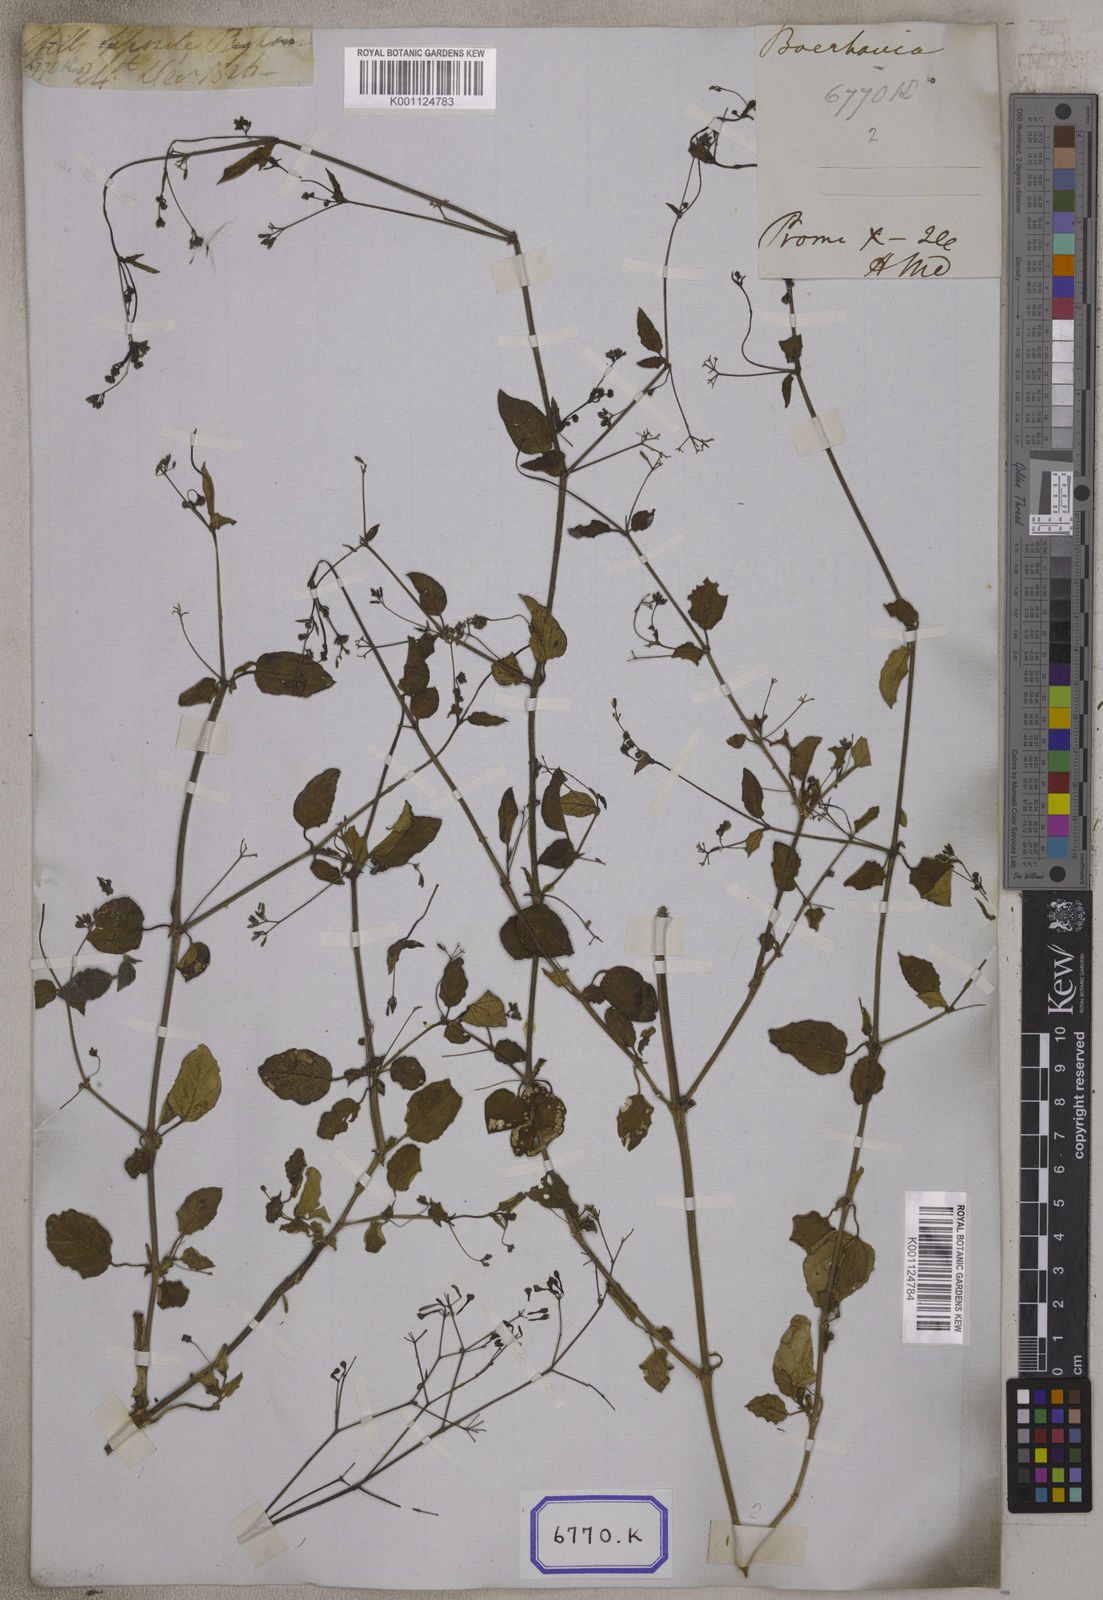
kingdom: Plantae
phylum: Tracheophyta
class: Magnoliopsida
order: Caryophyllales
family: Nyctaginaceae
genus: Boerhavia
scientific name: Boerhavia diffusa
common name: Red spiderling
